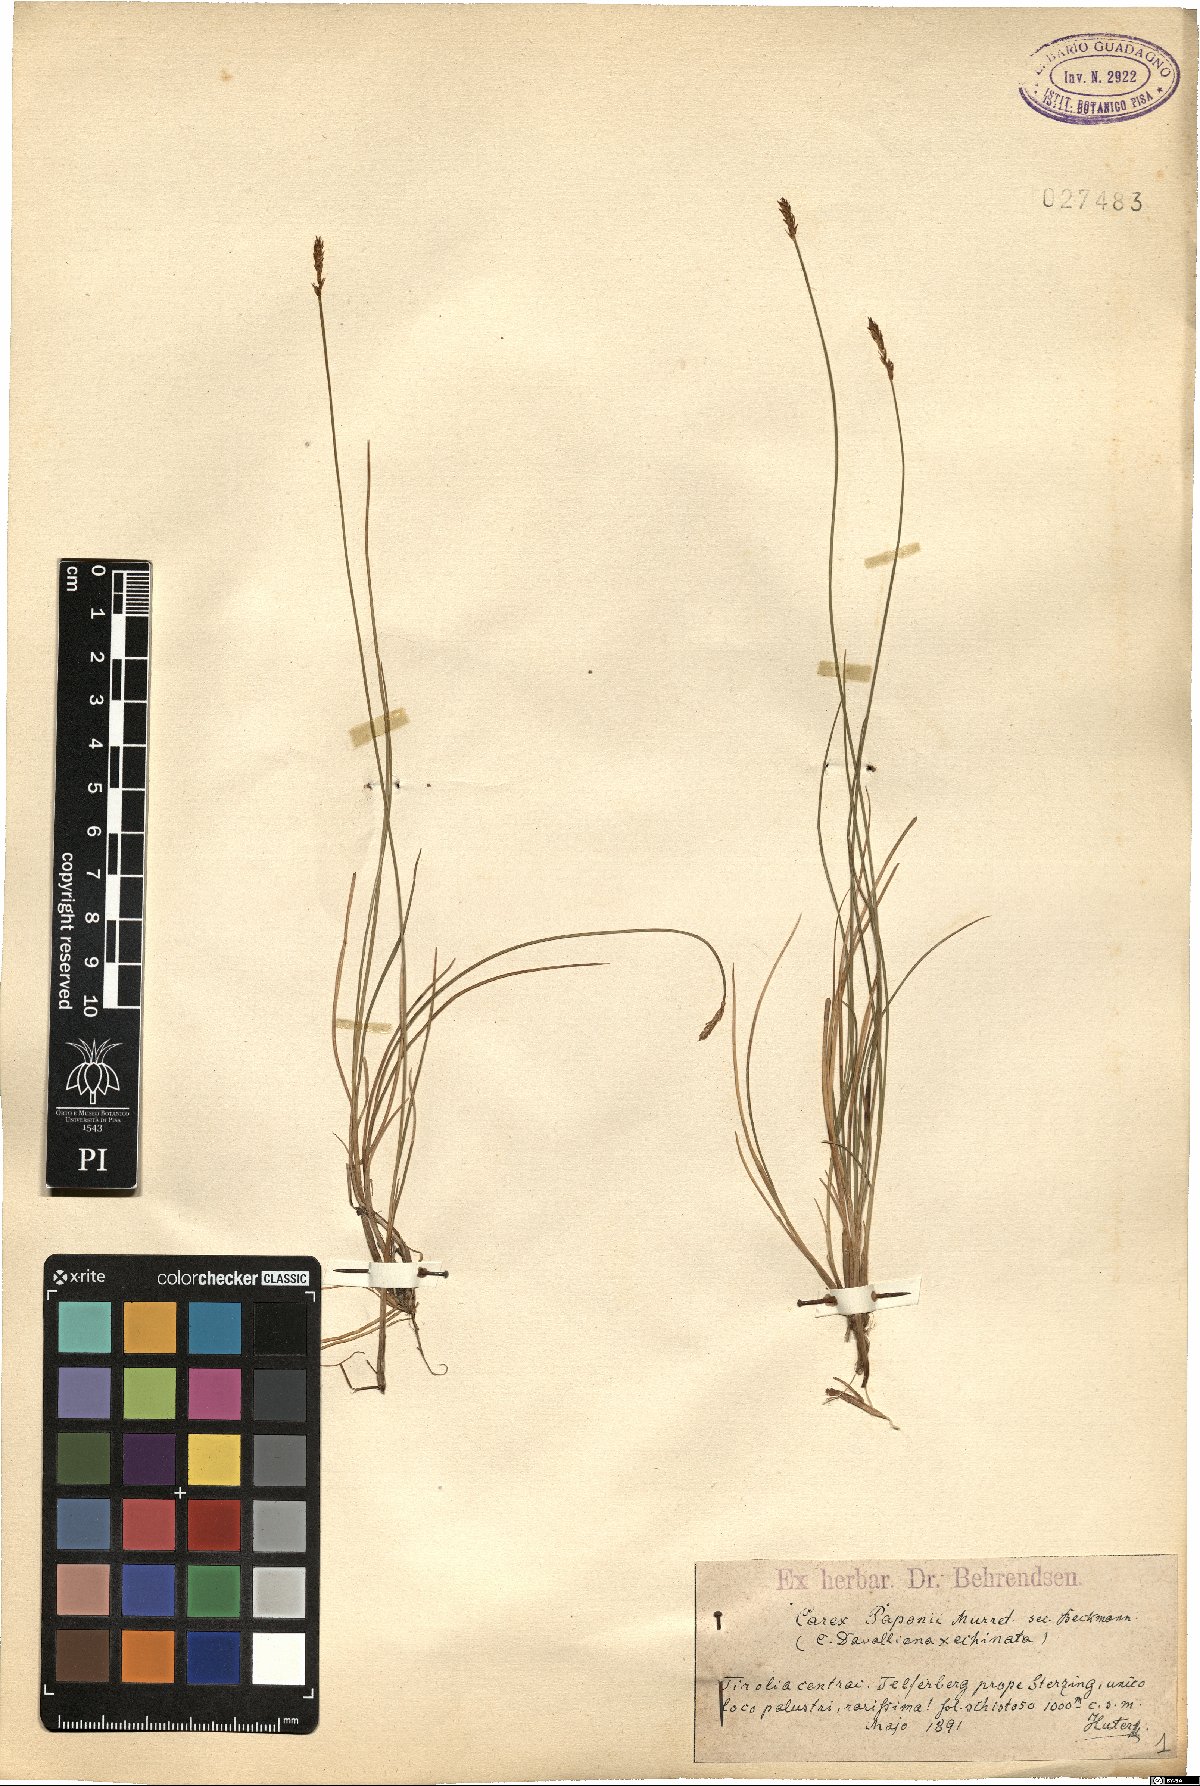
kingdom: Plantae
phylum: Tracheophyta
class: Liliopsida
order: Poales
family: Cyperaceae
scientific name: Cyperaceae
